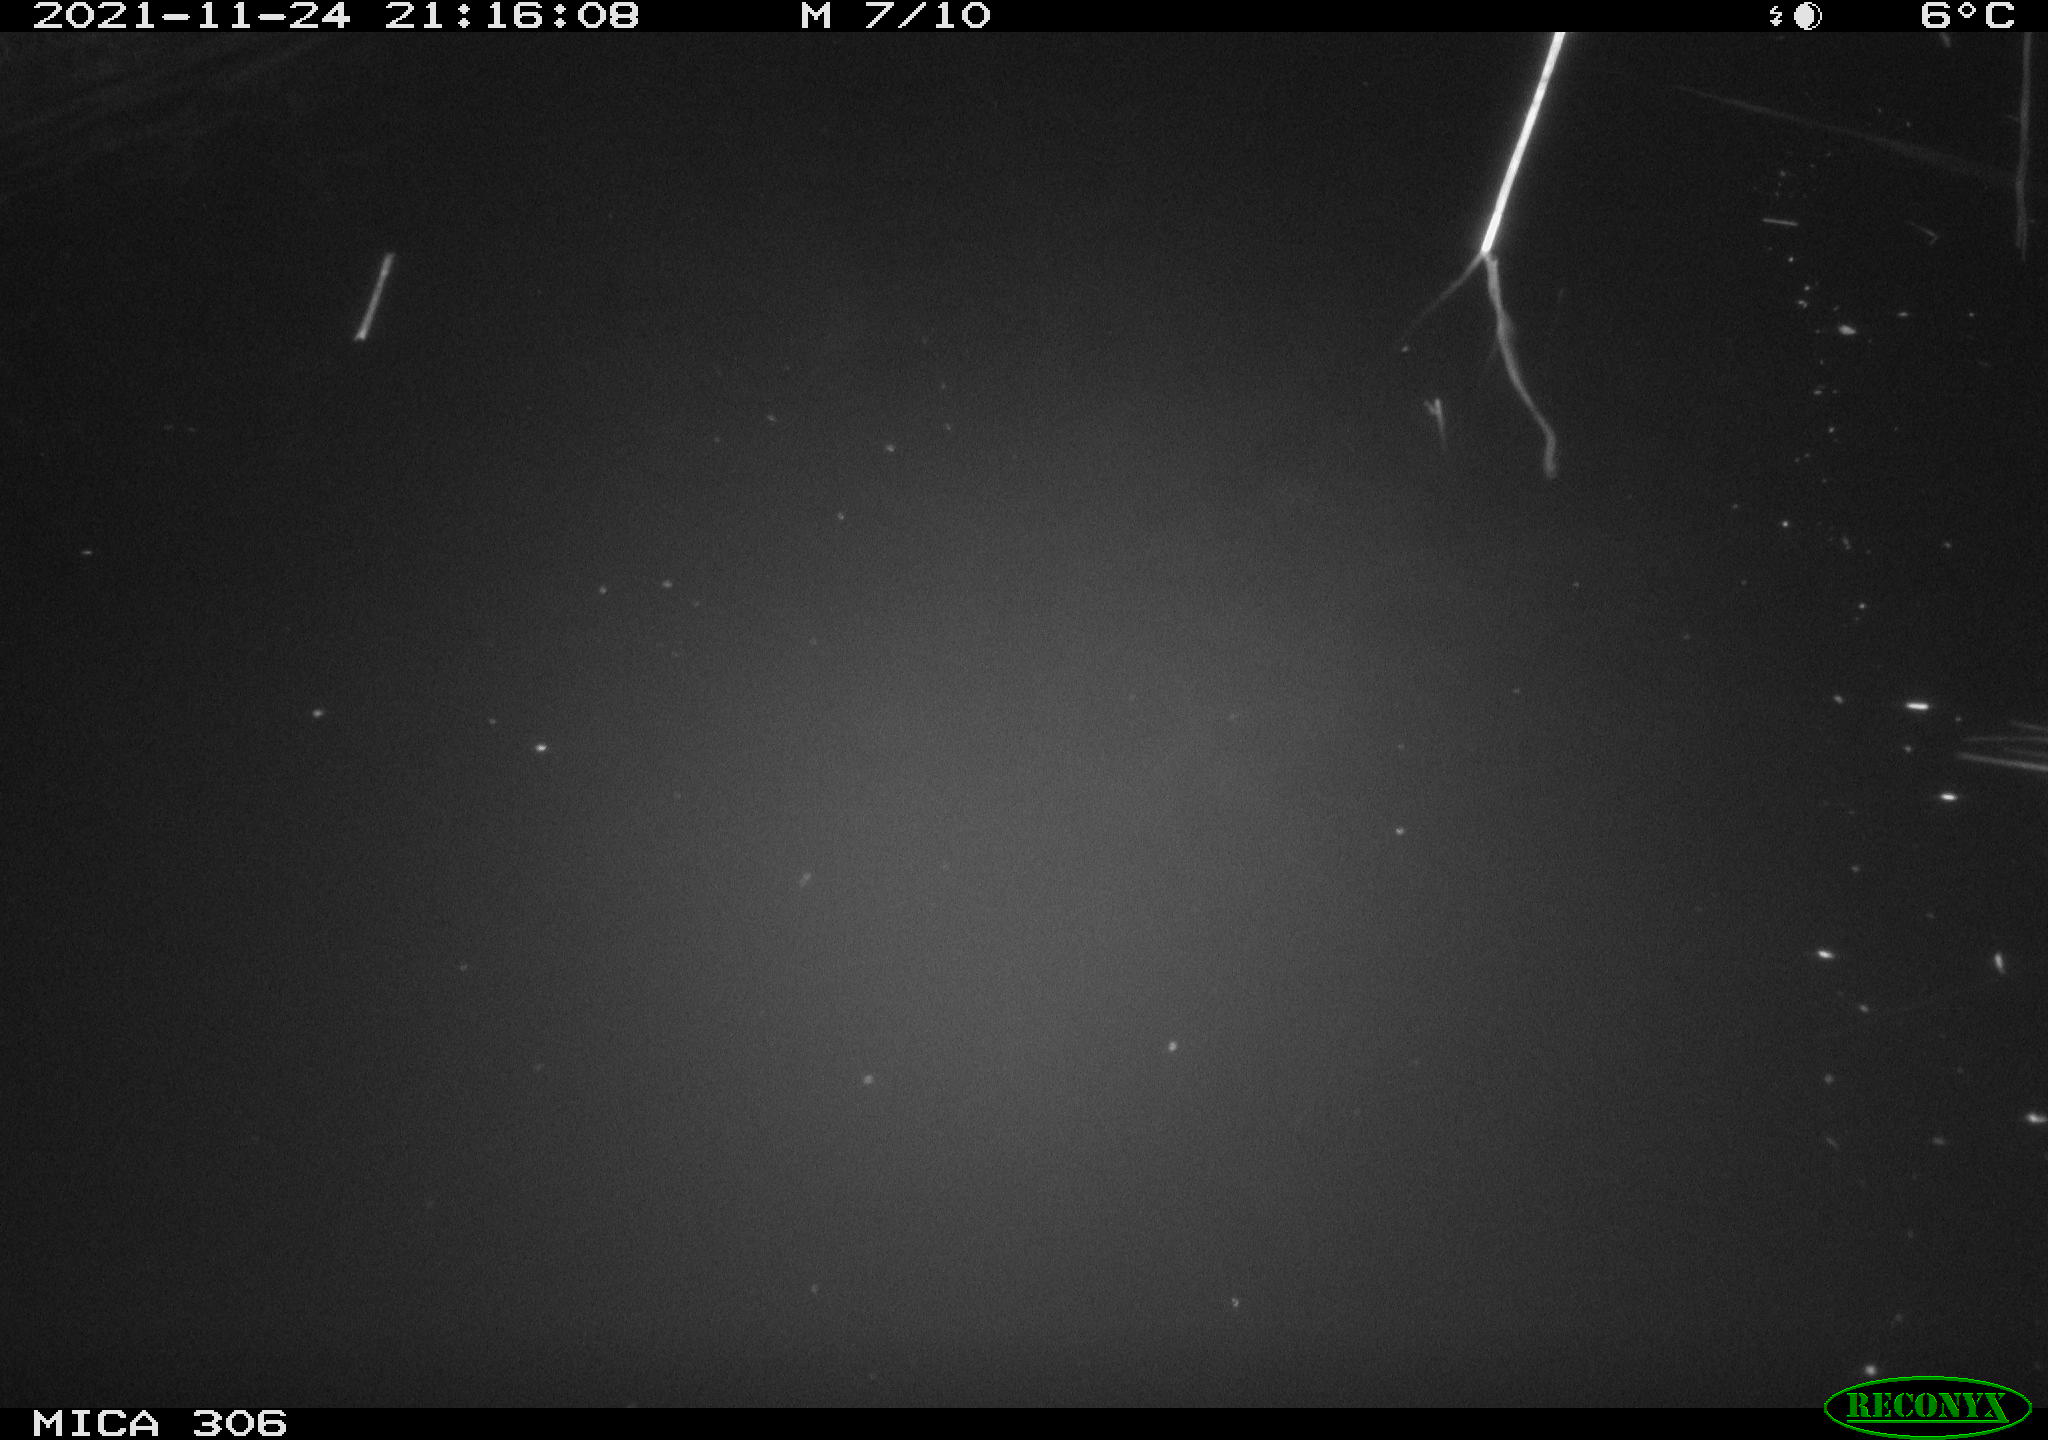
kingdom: Animalia
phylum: Chordata
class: Mammalia
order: Rodentia
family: Muridae
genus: Rattus
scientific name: Rattus norvegicus
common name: Brown rat
